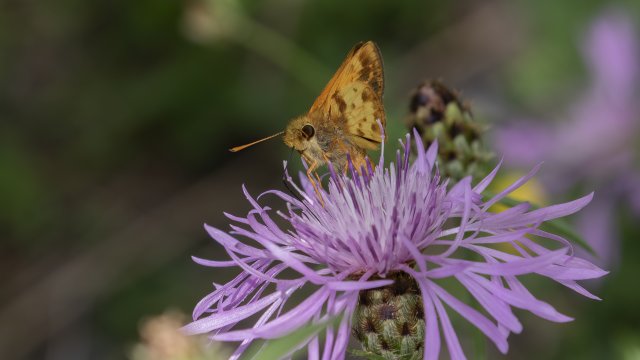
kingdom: Animalia
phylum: Arthropoda
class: Insecta
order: Lepidoptera
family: Hesperiidae
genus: Lon
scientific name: Lon zabulon
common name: Zabulon Skipper
